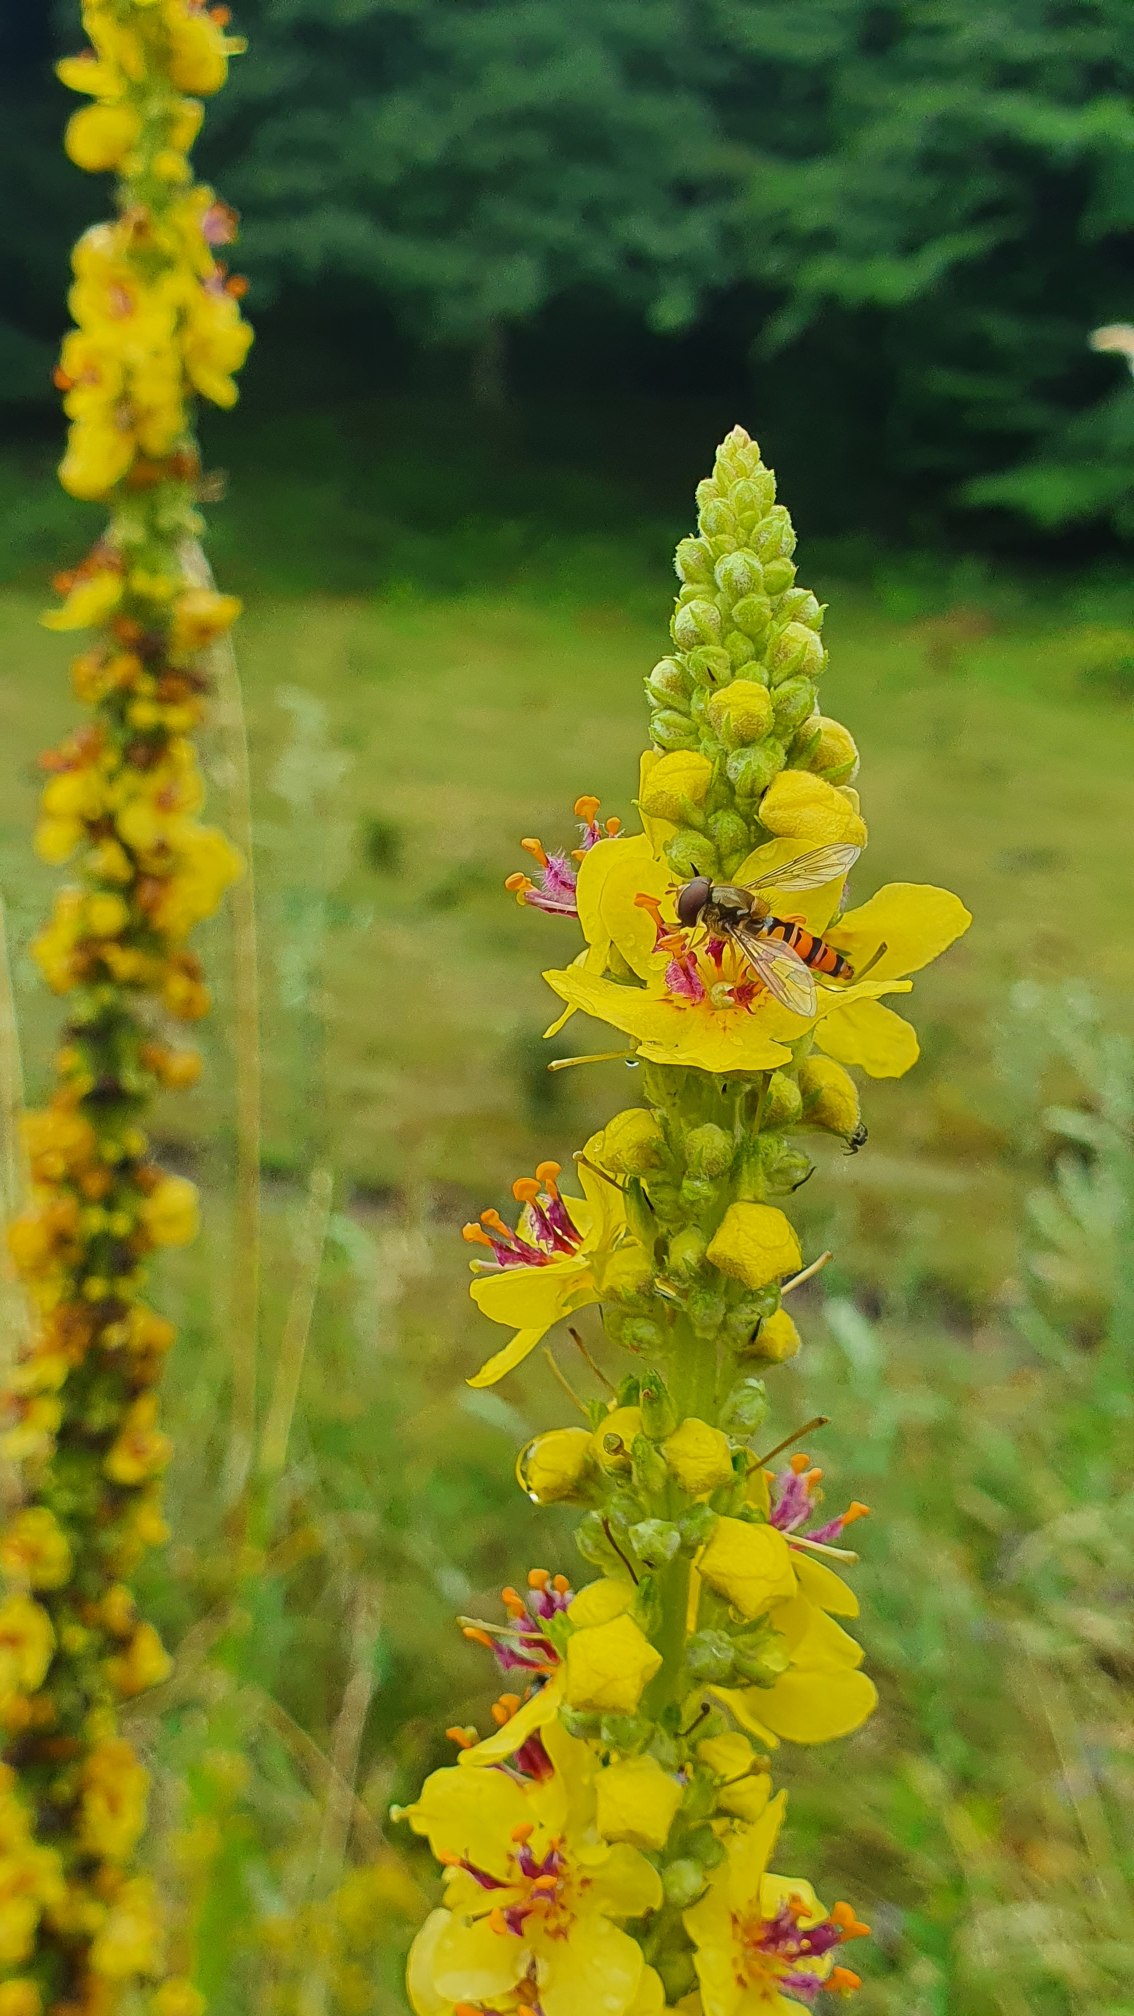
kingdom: Animalia
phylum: Arthropoda
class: Insecta
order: Diptera
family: Syrphidae
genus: Episyrphus
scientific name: Episyrphus balteatus
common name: Dobbeltbåndet svirreflue
